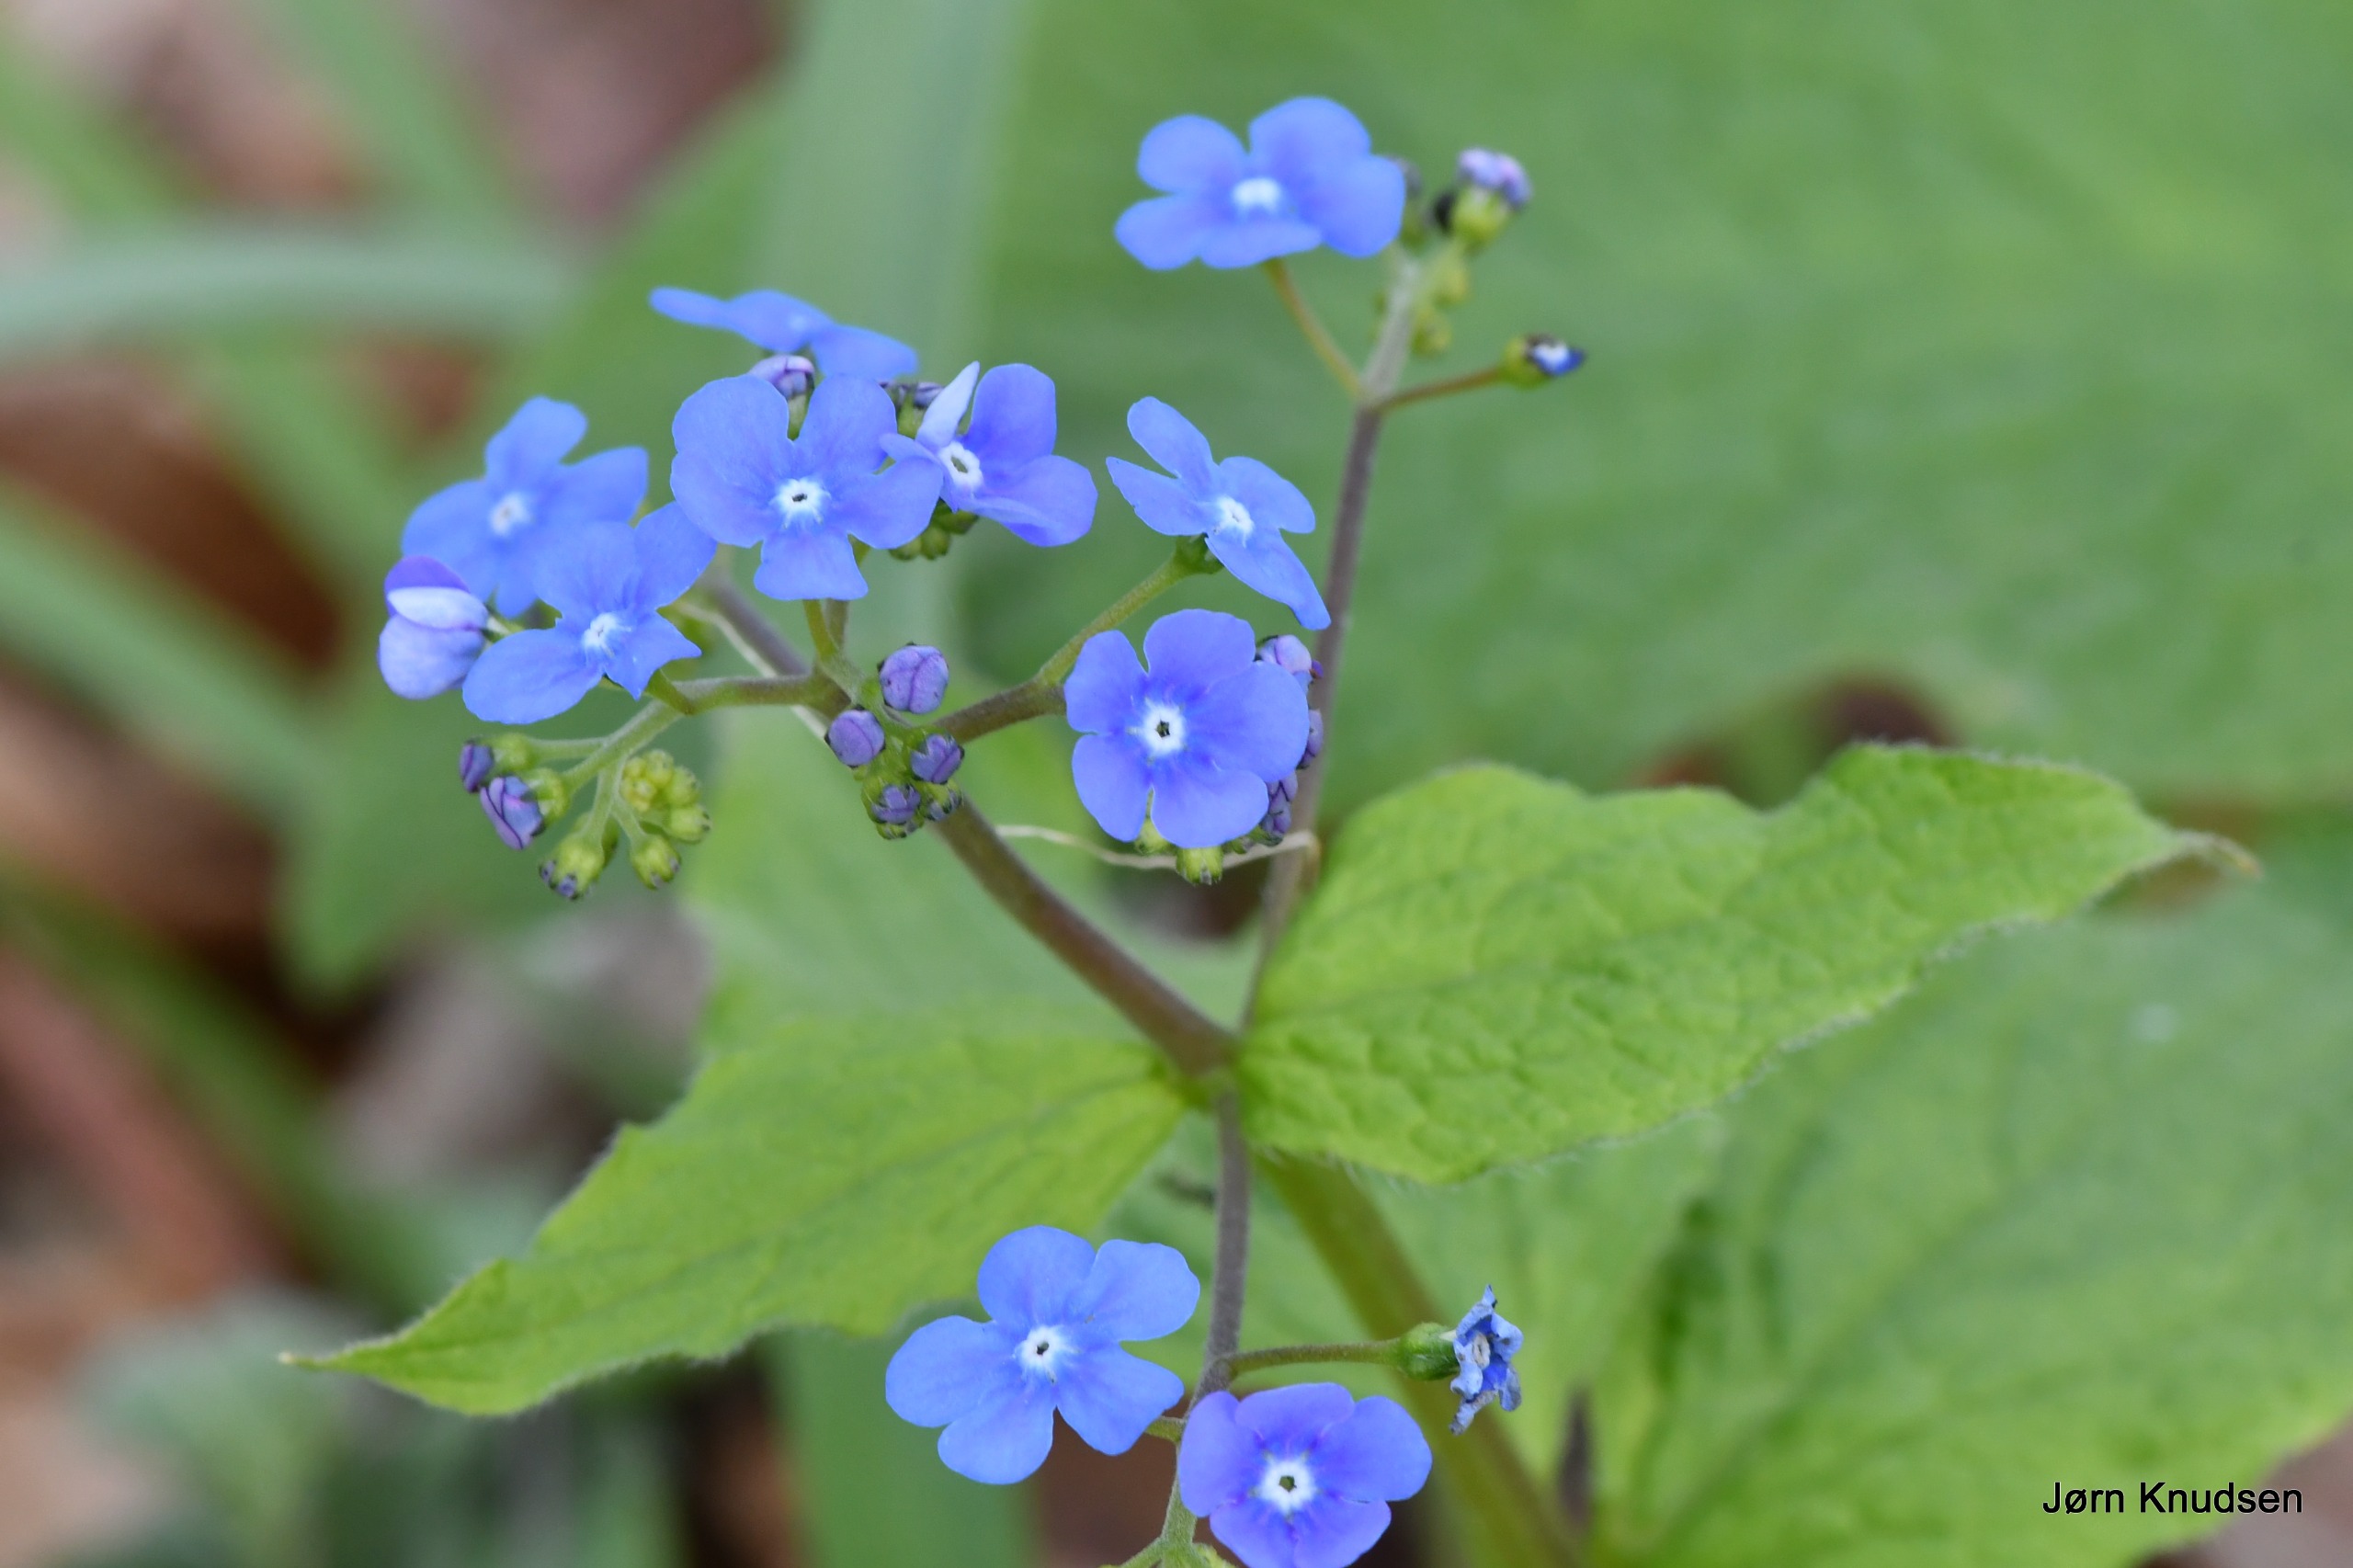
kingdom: Plantae
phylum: Tracheophyta
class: Magnoliopsida
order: Boraginales
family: Boraginaceae
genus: Brunnera
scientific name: Brunnera macrophylla
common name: Kærmindesøster
